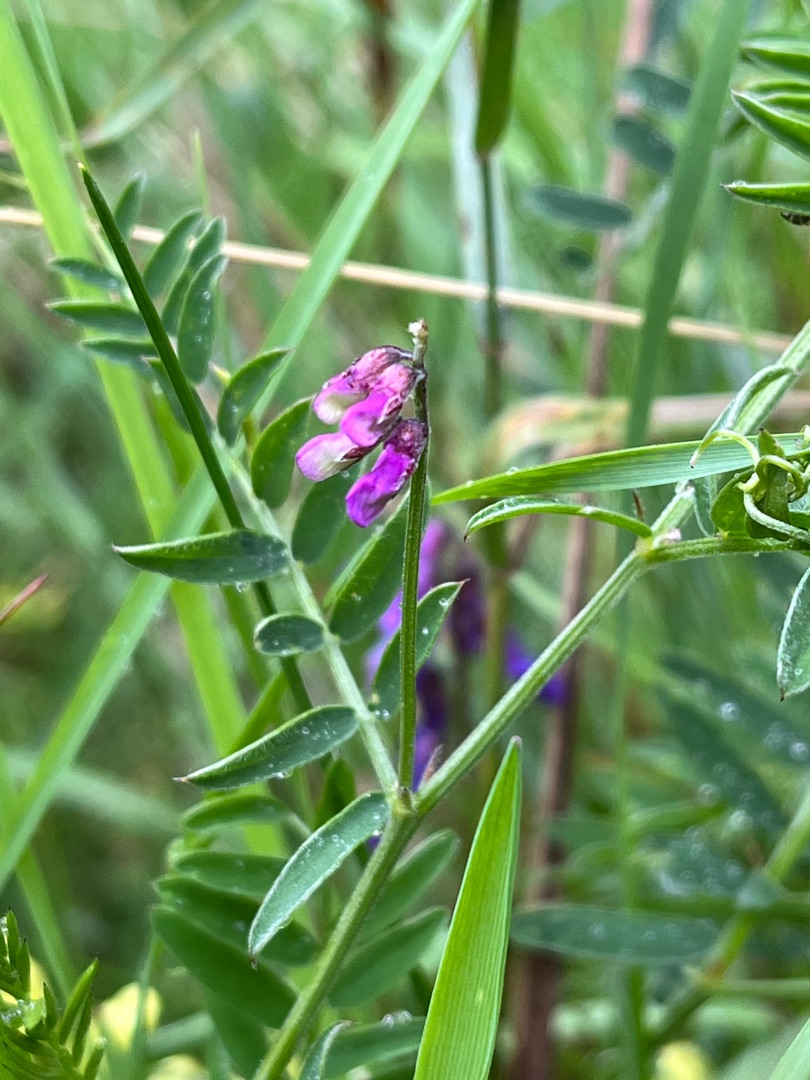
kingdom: Plantae
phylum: Tracheophyta
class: Magnoliopsida
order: Fabales
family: Fabaceae
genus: Vicia
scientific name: Vicia cracca
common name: Muse-vikke
